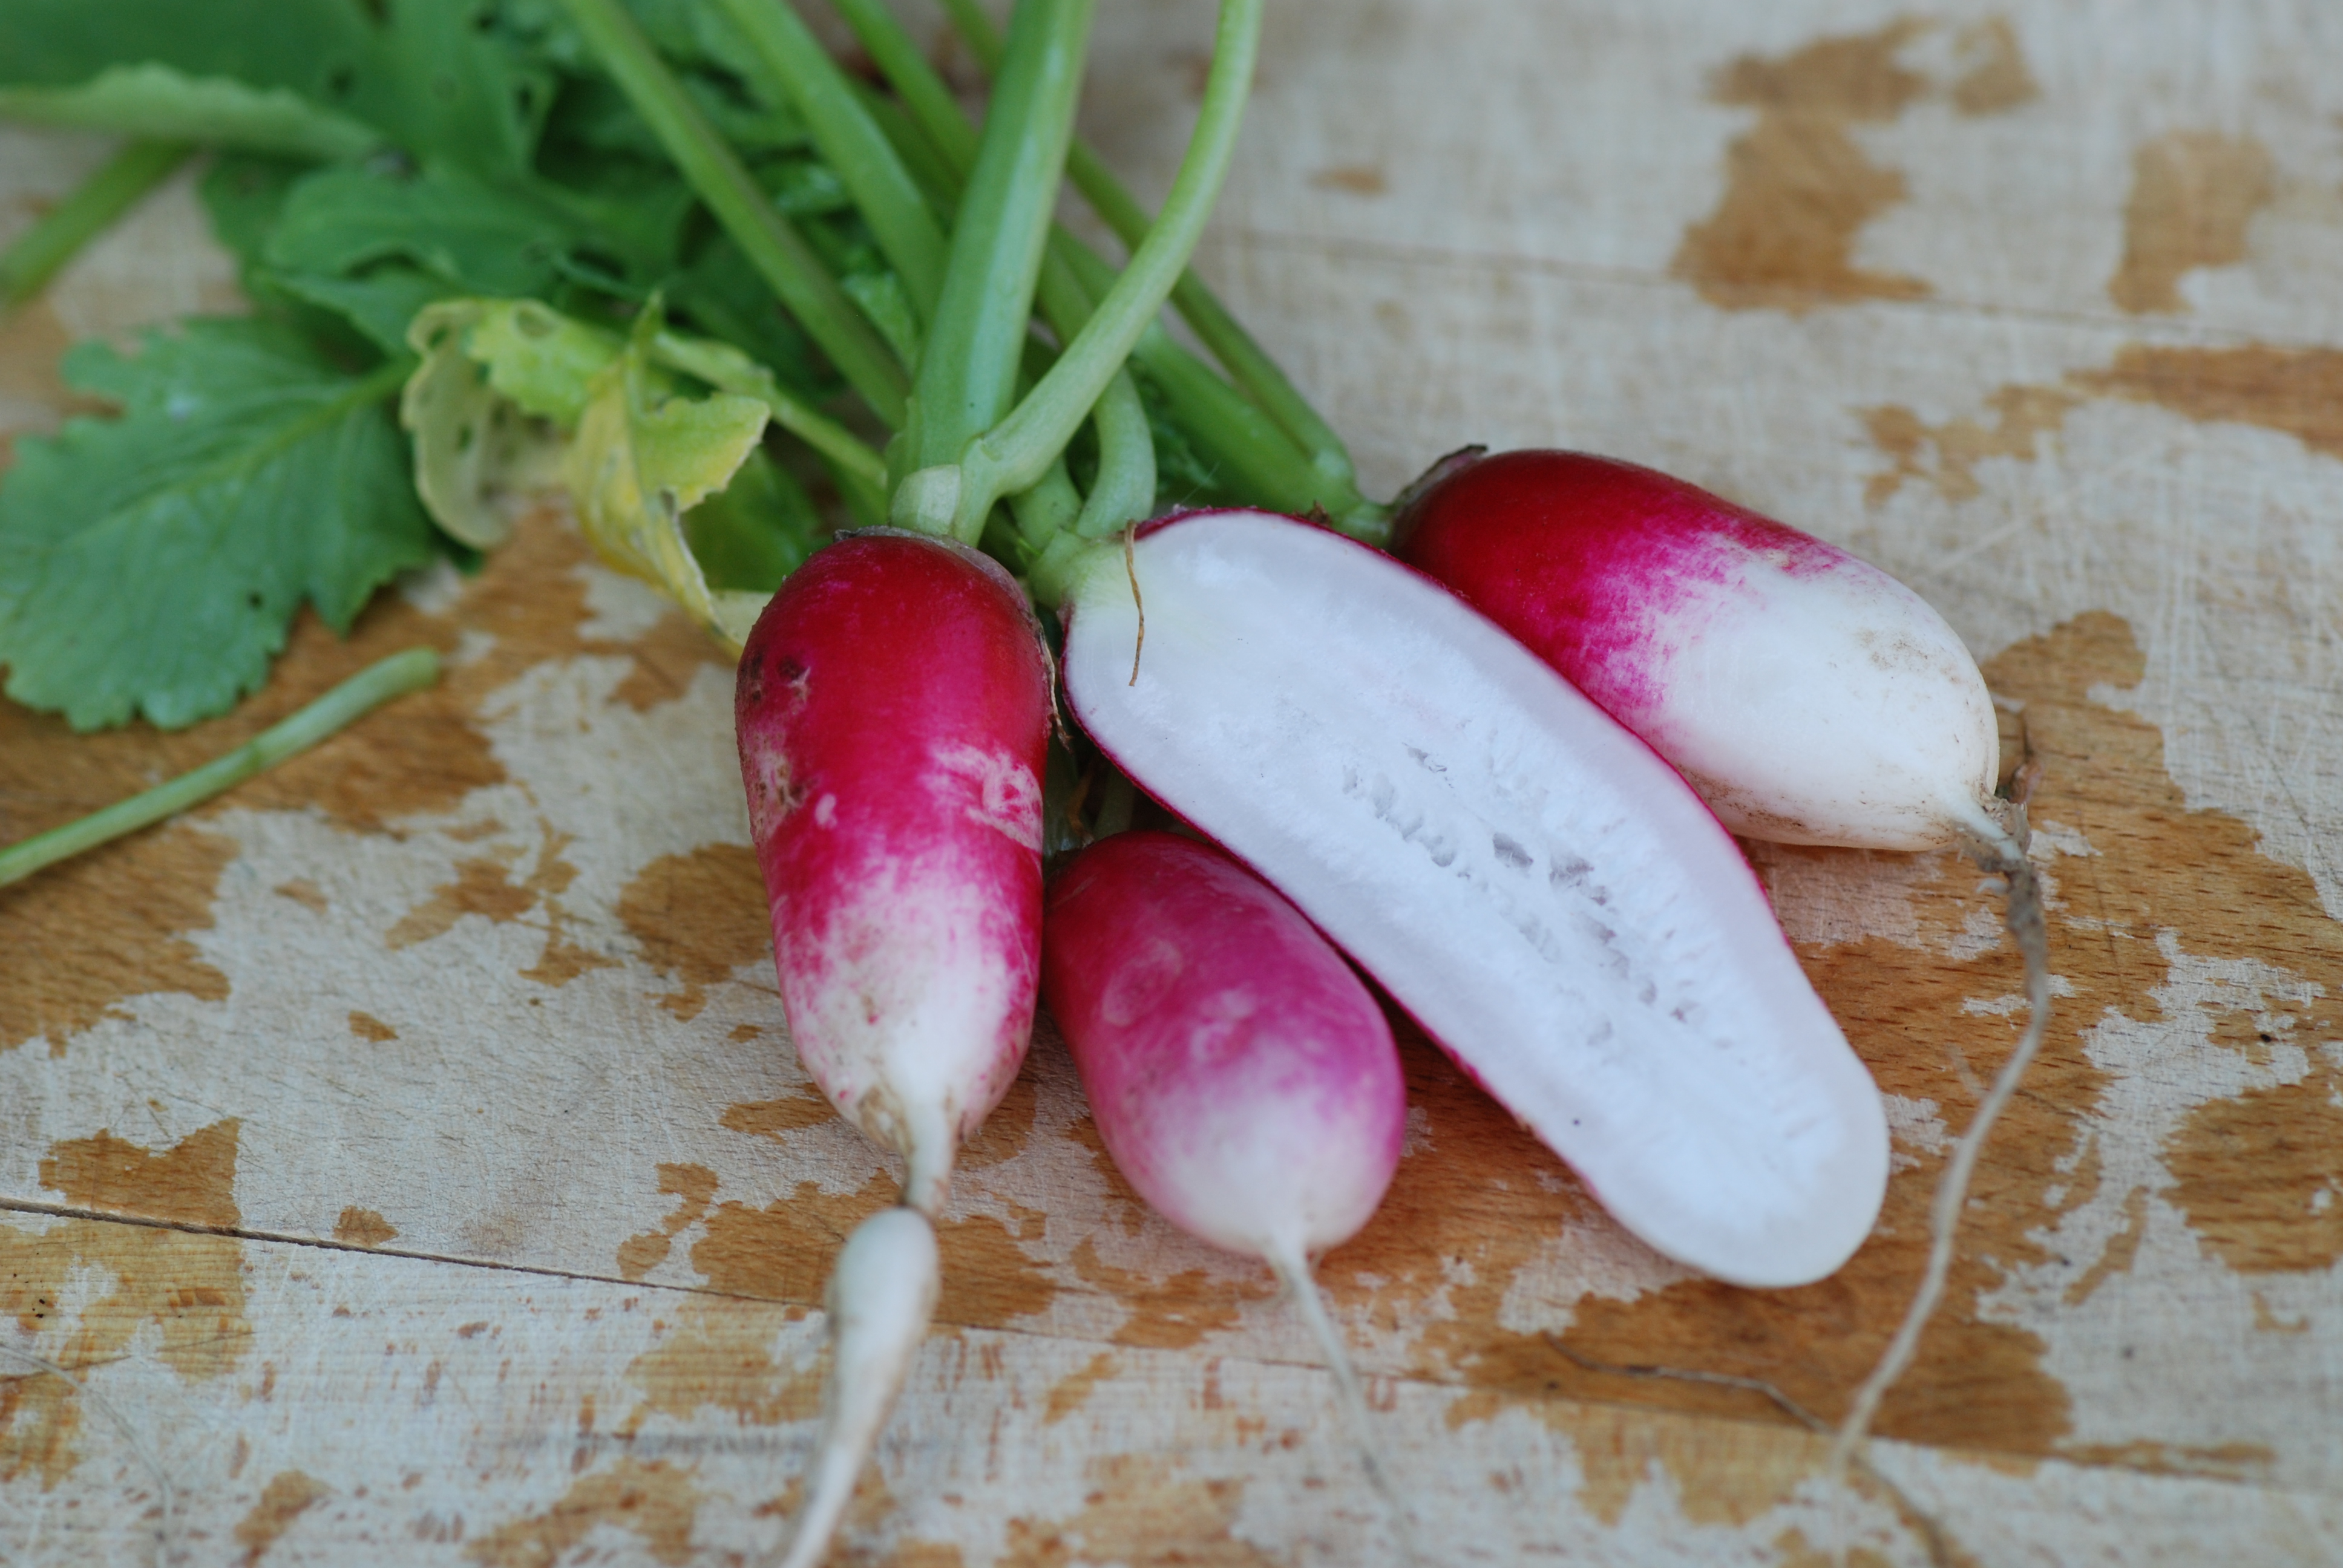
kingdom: Plantae
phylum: Tracheophyta
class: Magnoliopsida
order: Brassicales
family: Brassicaceae
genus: Raphanus
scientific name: Raphanus sativus
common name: Cultivated radish
